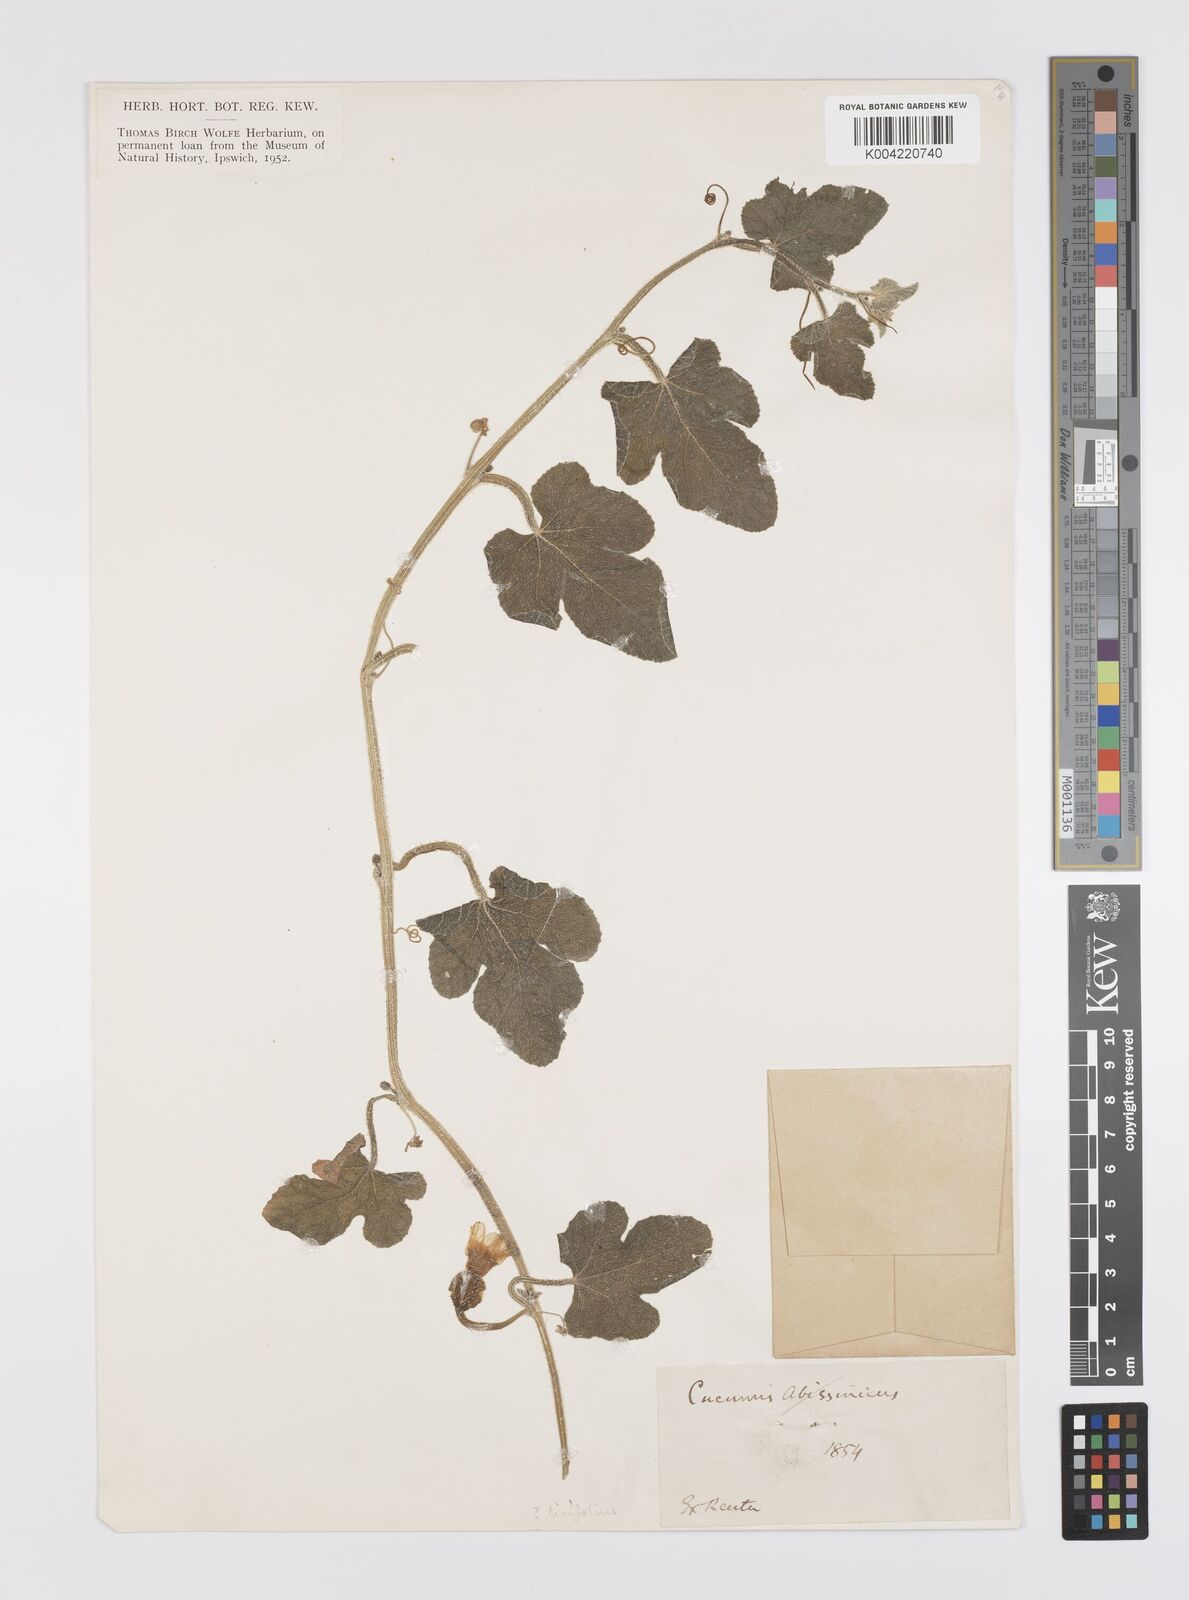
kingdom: Plantae
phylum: Tracheophyta
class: Magnoliopsida
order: Cucurbitales
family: Cucurbitaceae
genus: Cucumis
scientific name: Cucumis ficifolius
